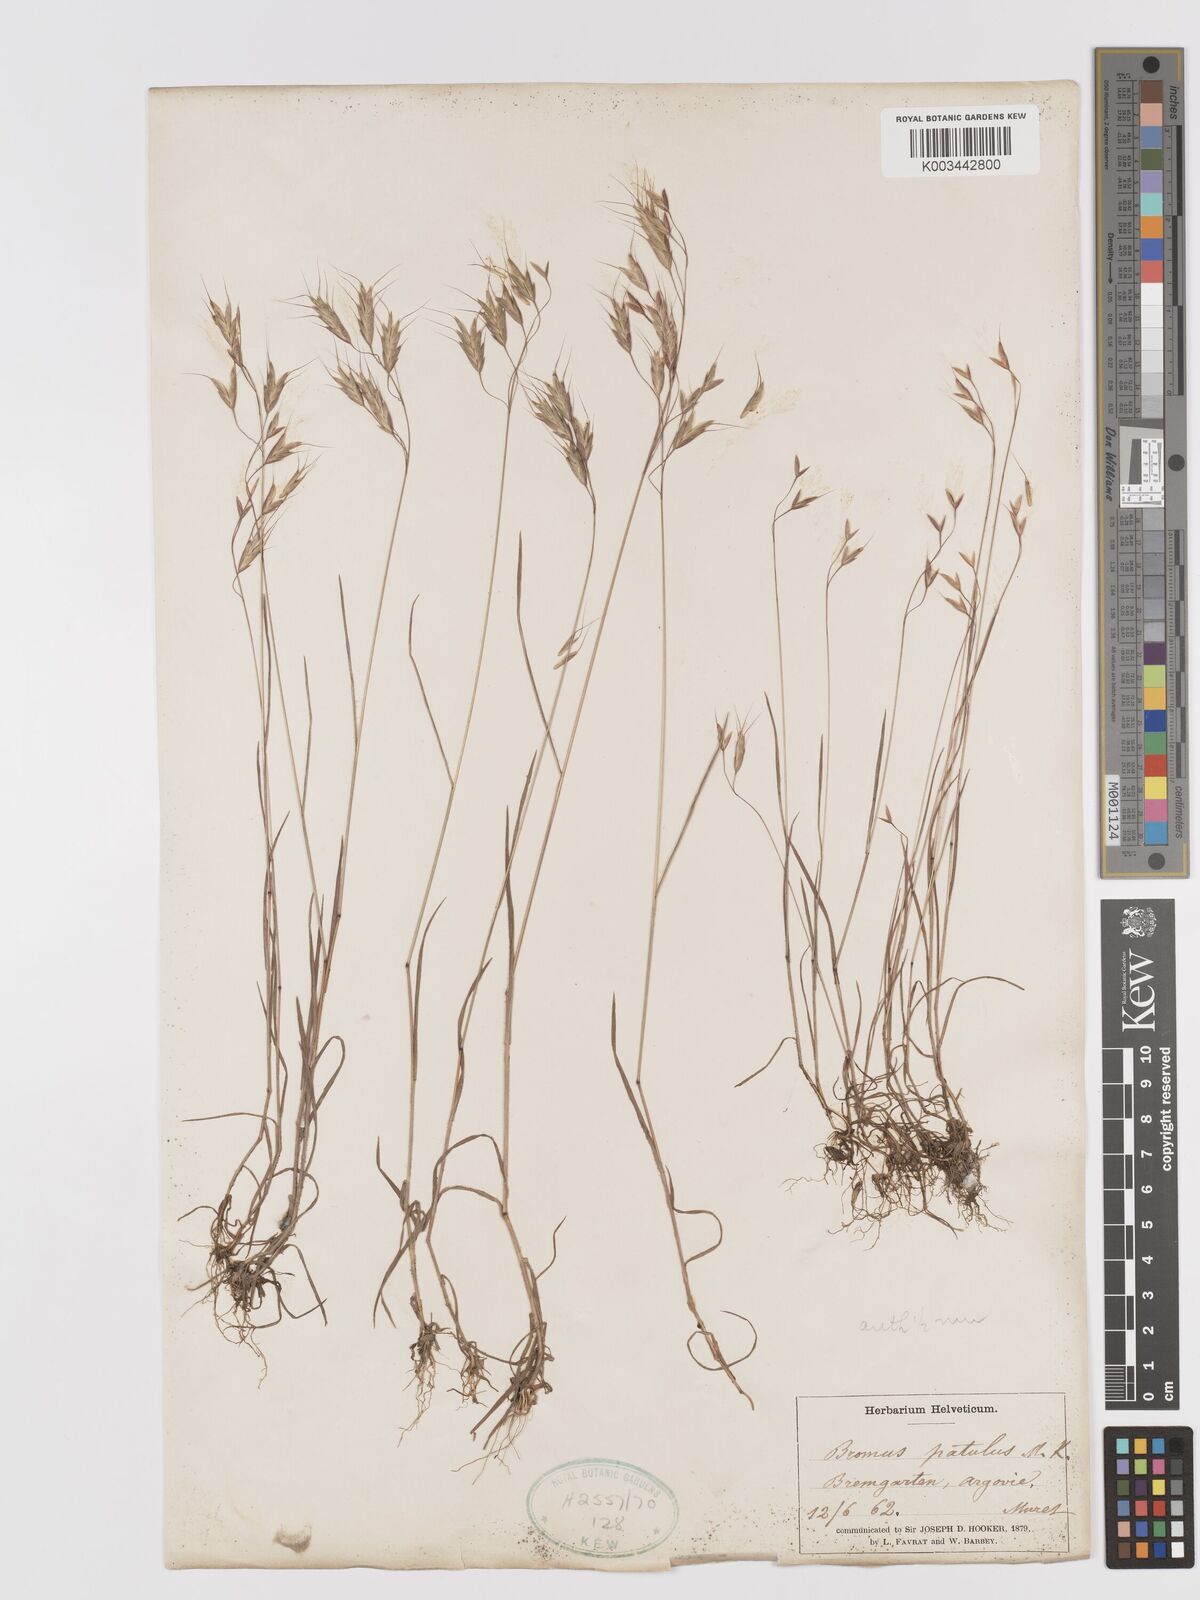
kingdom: Plantae
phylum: Tracheophyta
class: Liliopsida
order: Poales
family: Poaceae
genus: Bromus
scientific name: Bromus japonicus
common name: Japanese brome
